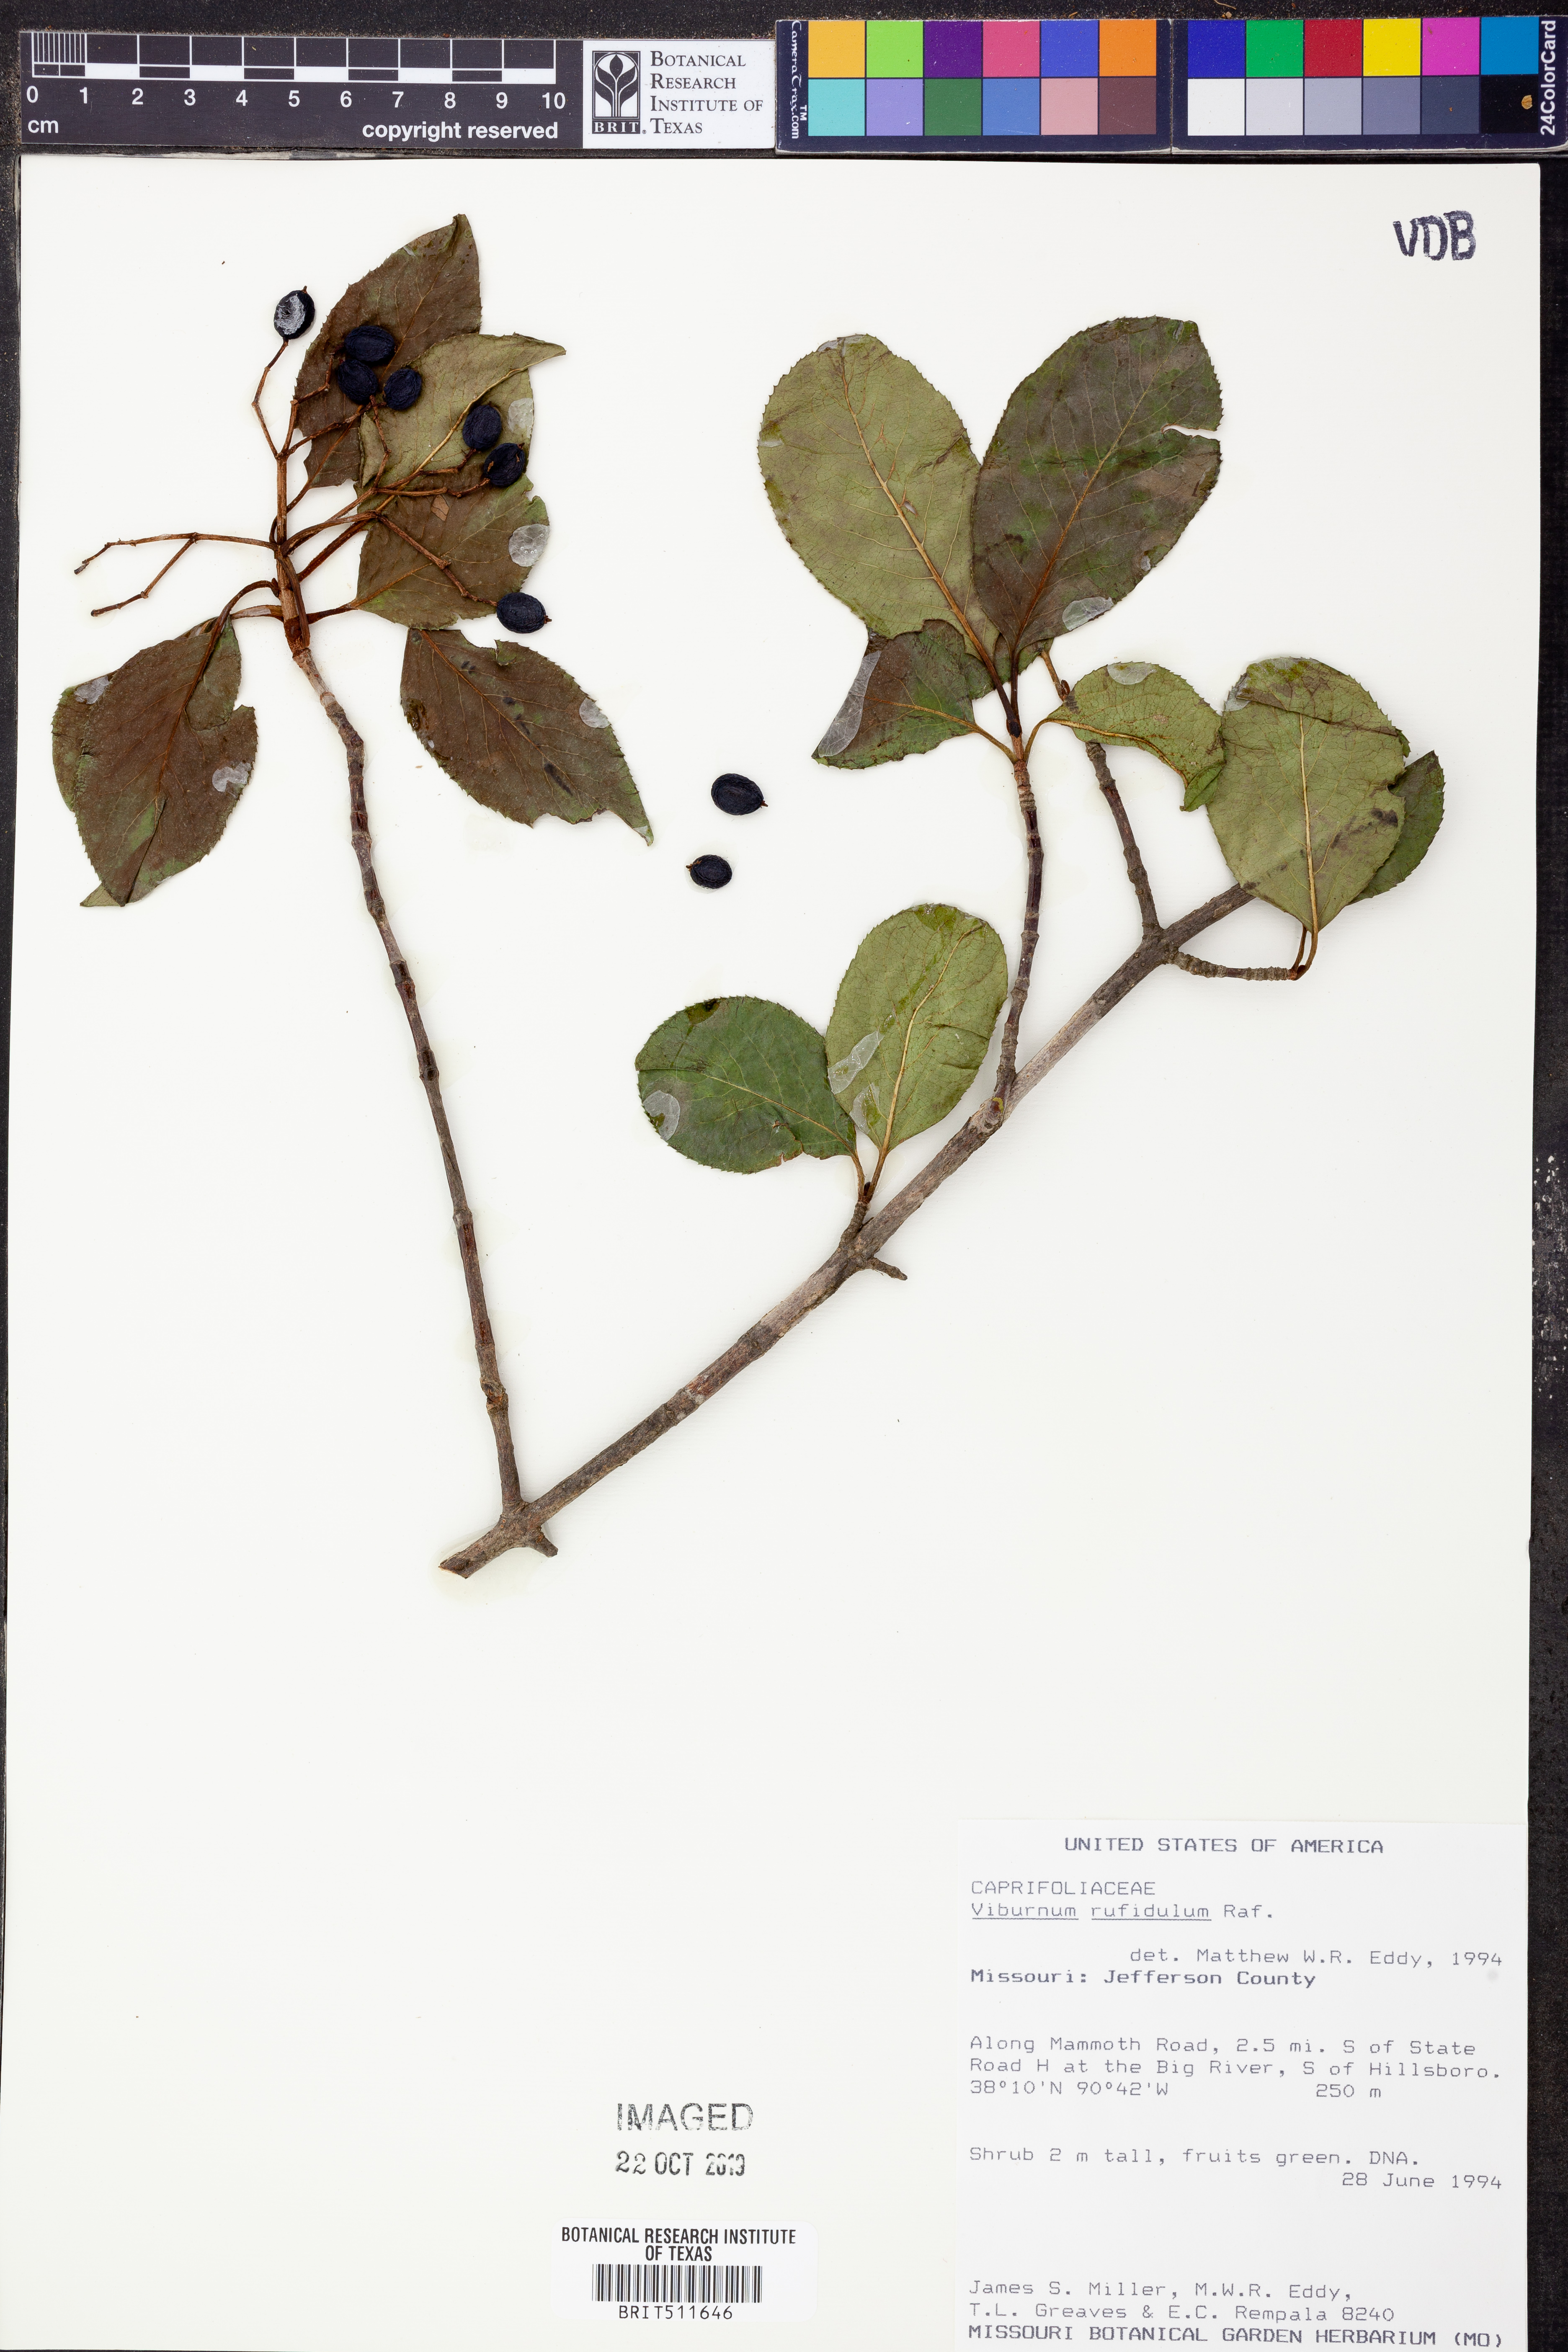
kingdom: Plantae
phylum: Tracheophyta
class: Magnoliopsida
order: Dipsacales
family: Viburnaceae
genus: Viburnum
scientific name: Viburnum rufidulum
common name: Blue haw
